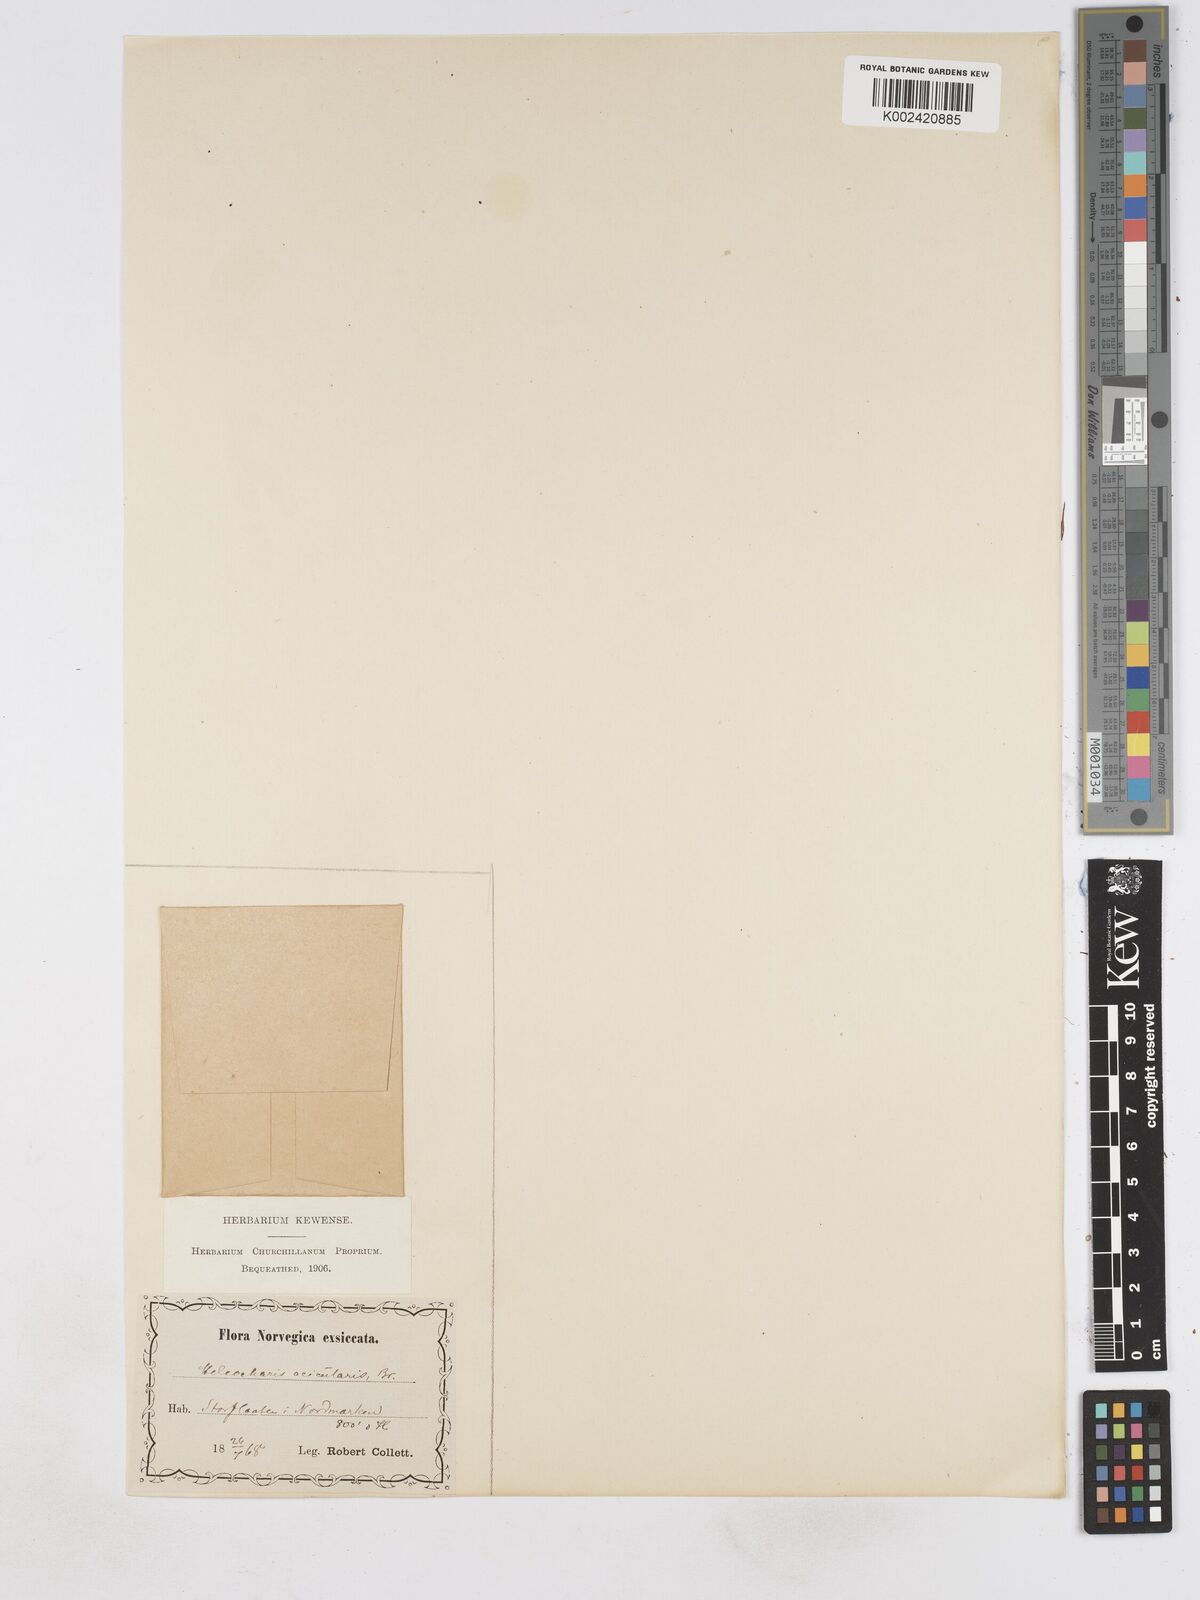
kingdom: Plantae
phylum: Tracheophyta
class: Liliopsida
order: Poales
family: Cyperaceae
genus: Eleocharis
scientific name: Eleocharis acicularis
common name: Needle spike-rush
